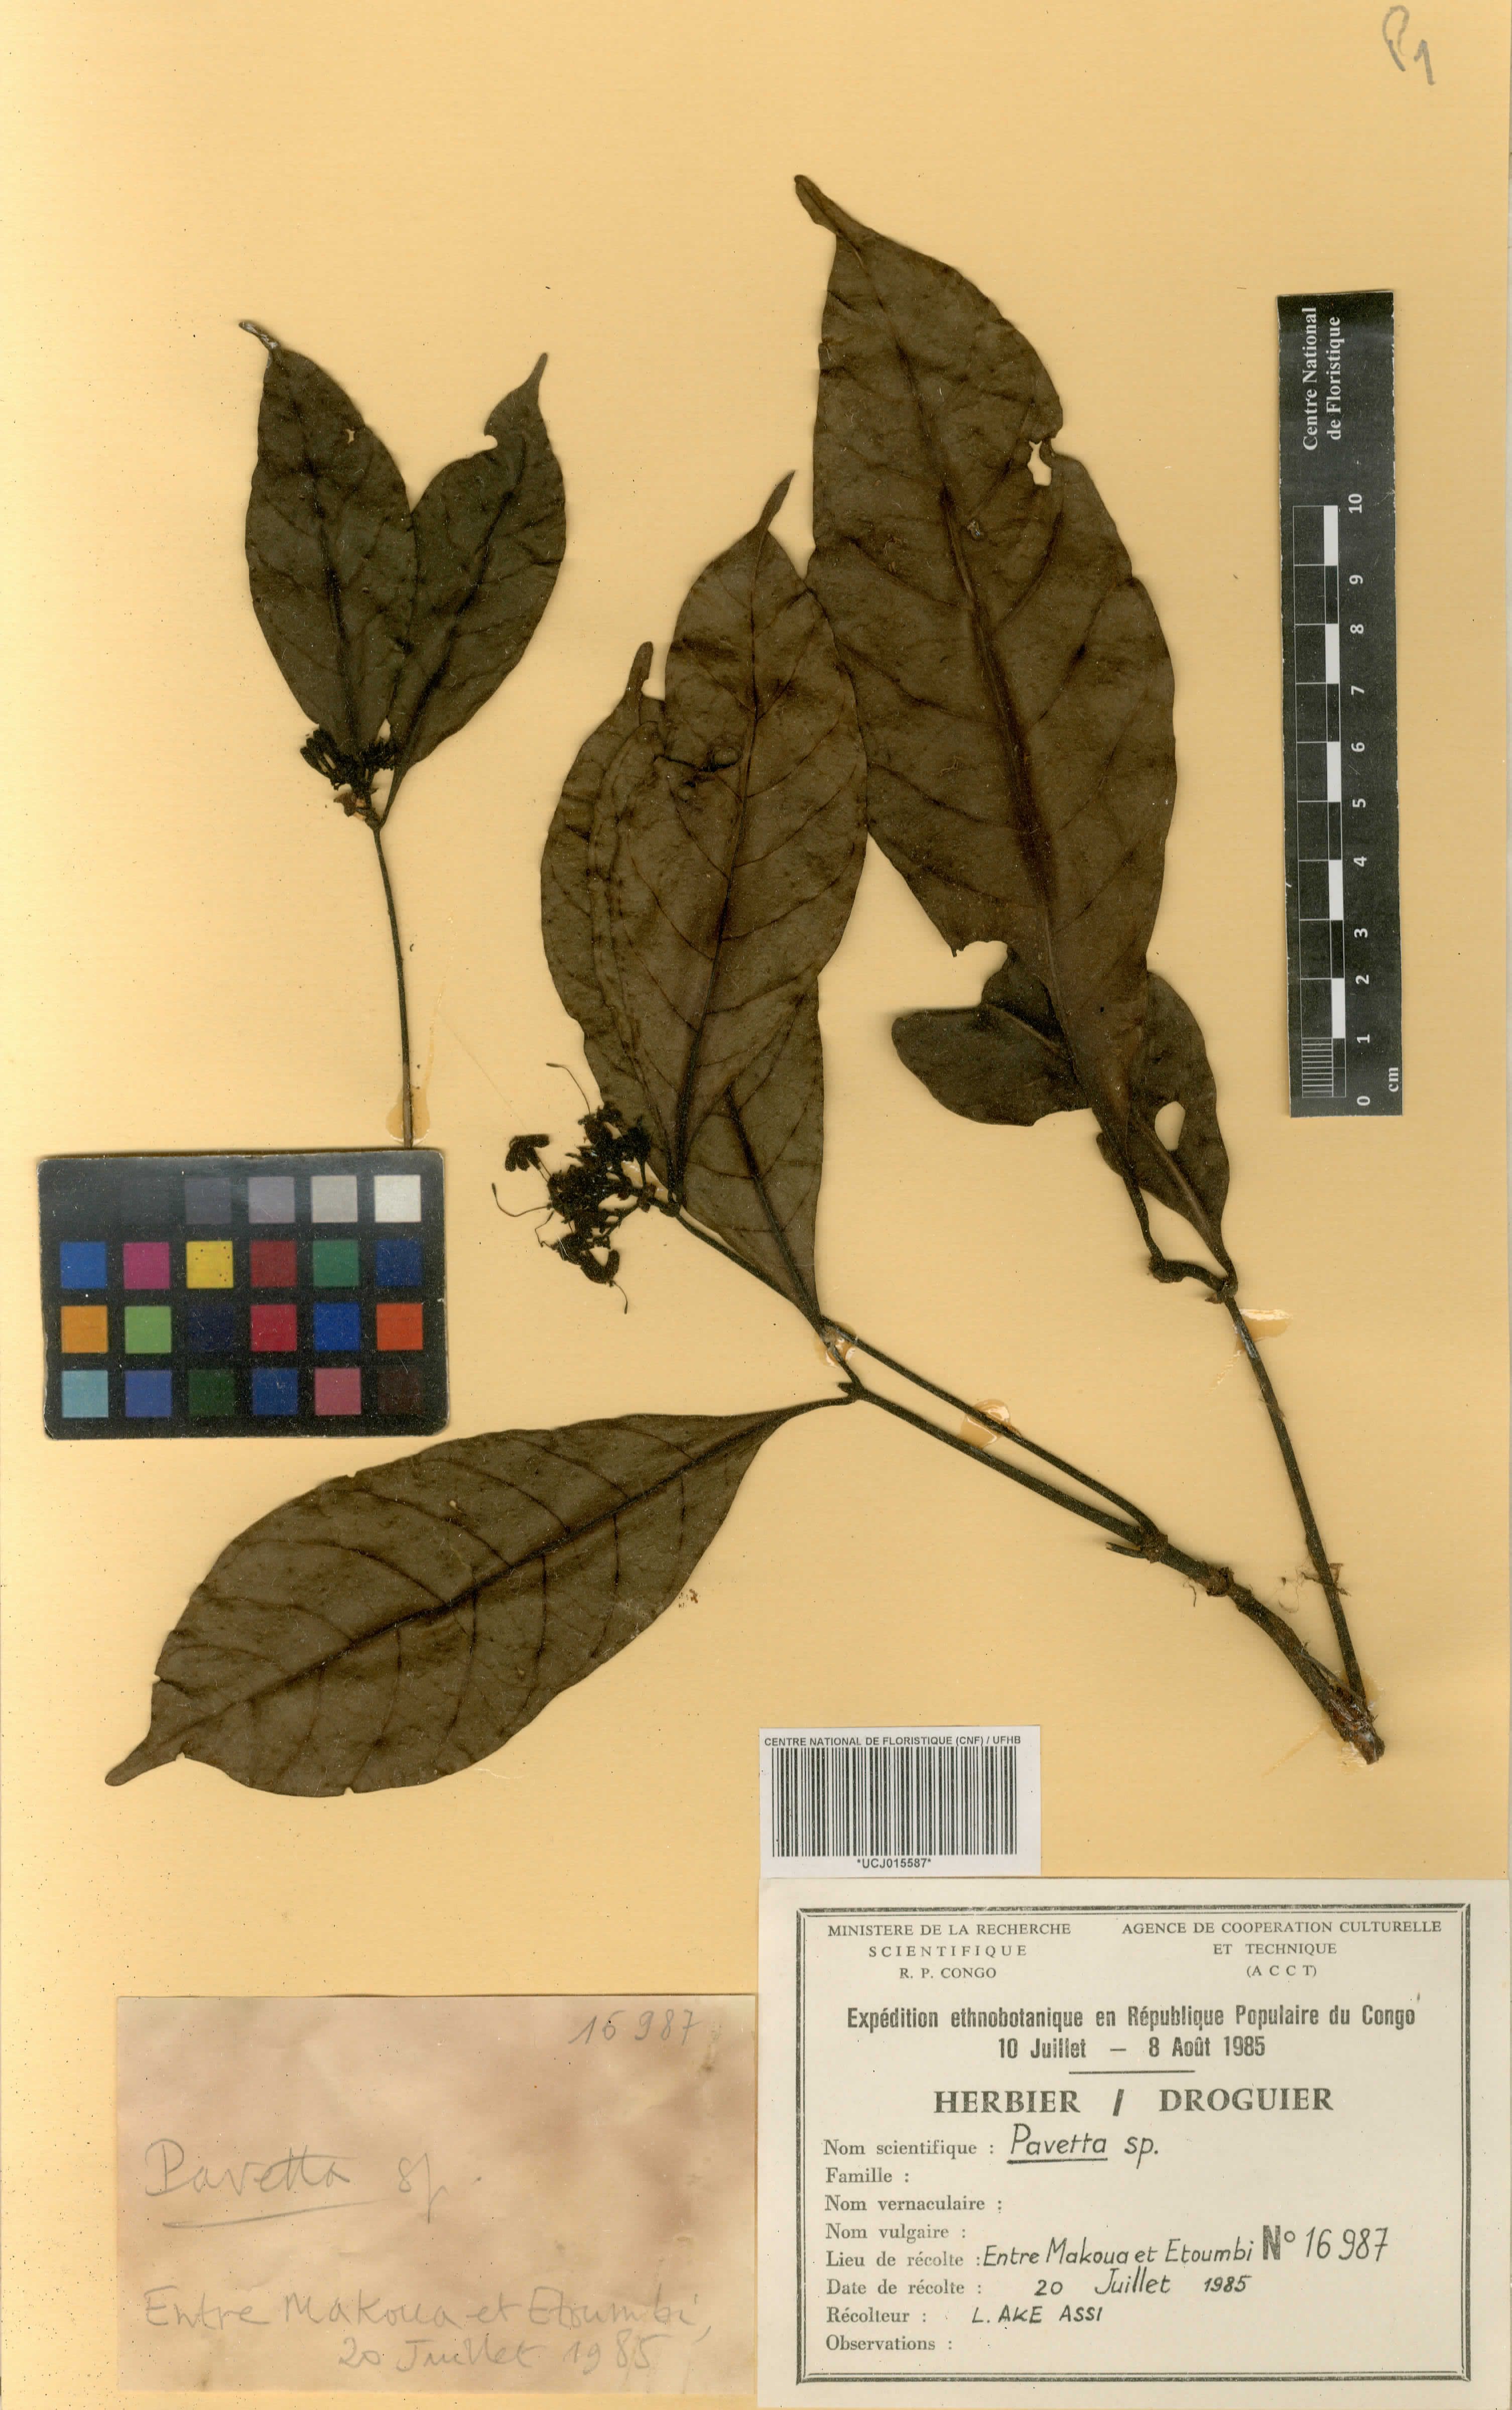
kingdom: Plantae
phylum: Tracheophyta
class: Magnoliopsida
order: Gentianales
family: Rubiaceae
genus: Pavetta
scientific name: Pavetta
